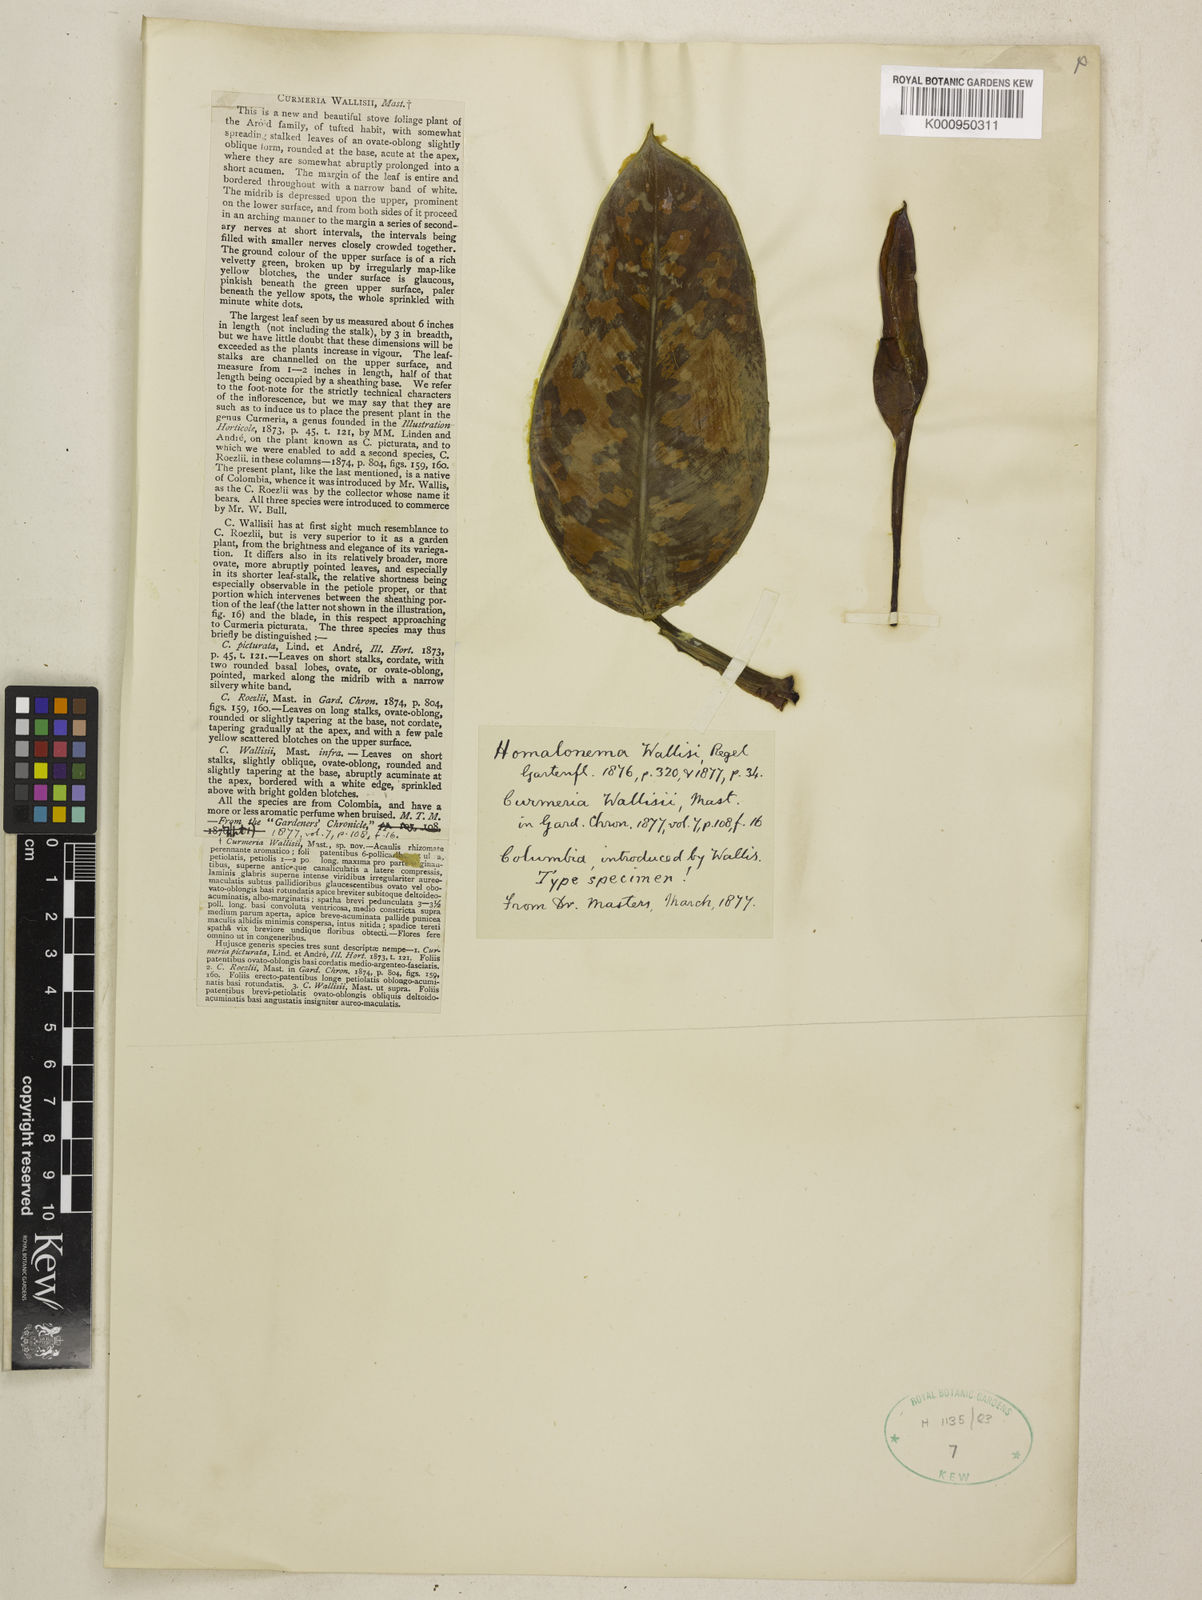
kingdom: Plantae
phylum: Tracheophyta
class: Liliopsida
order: Alismatales
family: Araceae
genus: Adelonema
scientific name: Adelonema wallisii
